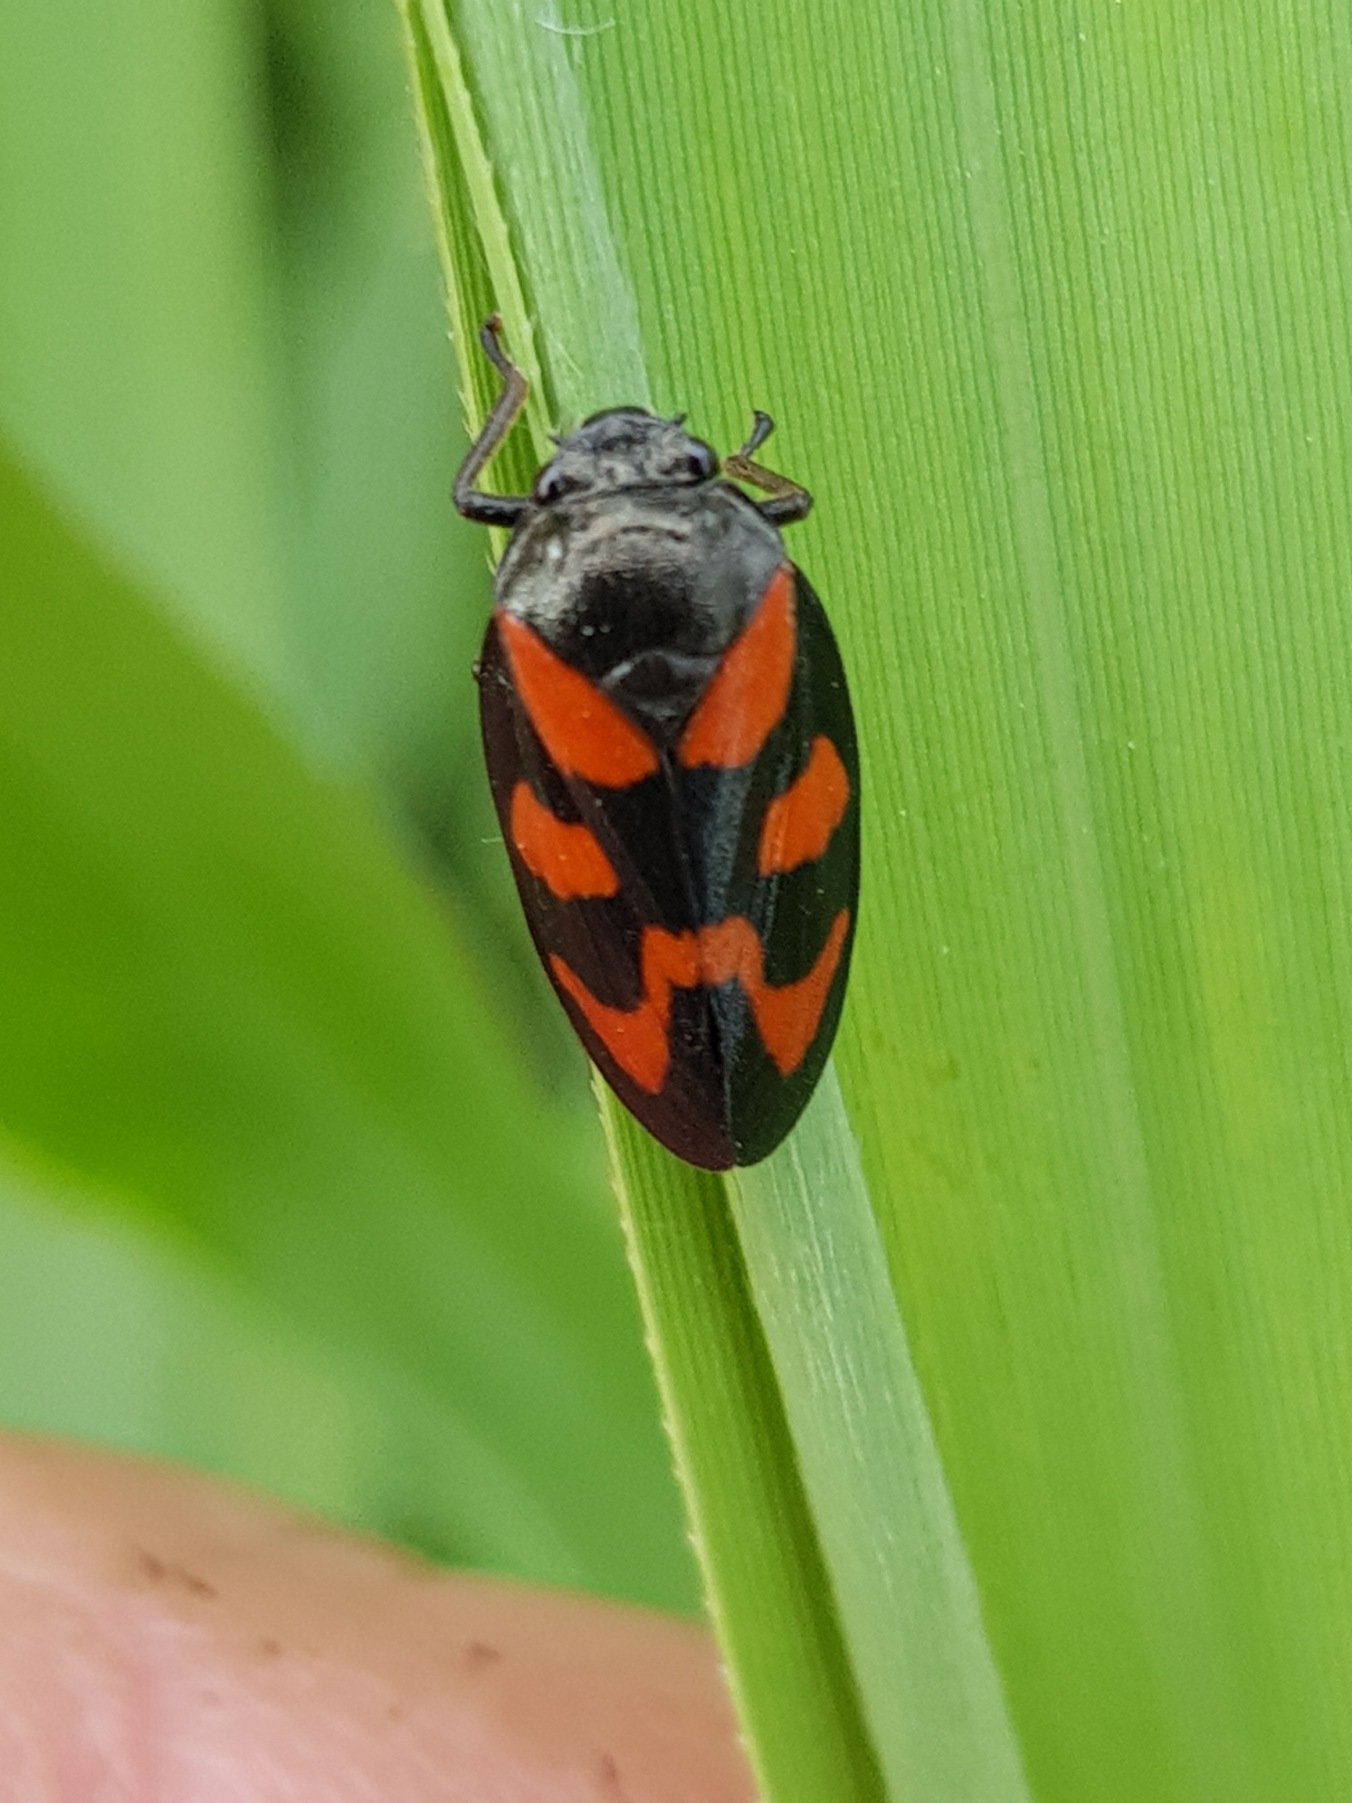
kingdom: Animalia
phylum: Arthropoda
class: Insecta
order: Hemiptera
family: Cercopidae
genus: Cercopis
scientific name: Cercopis vulnerata
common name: Blodcikade
